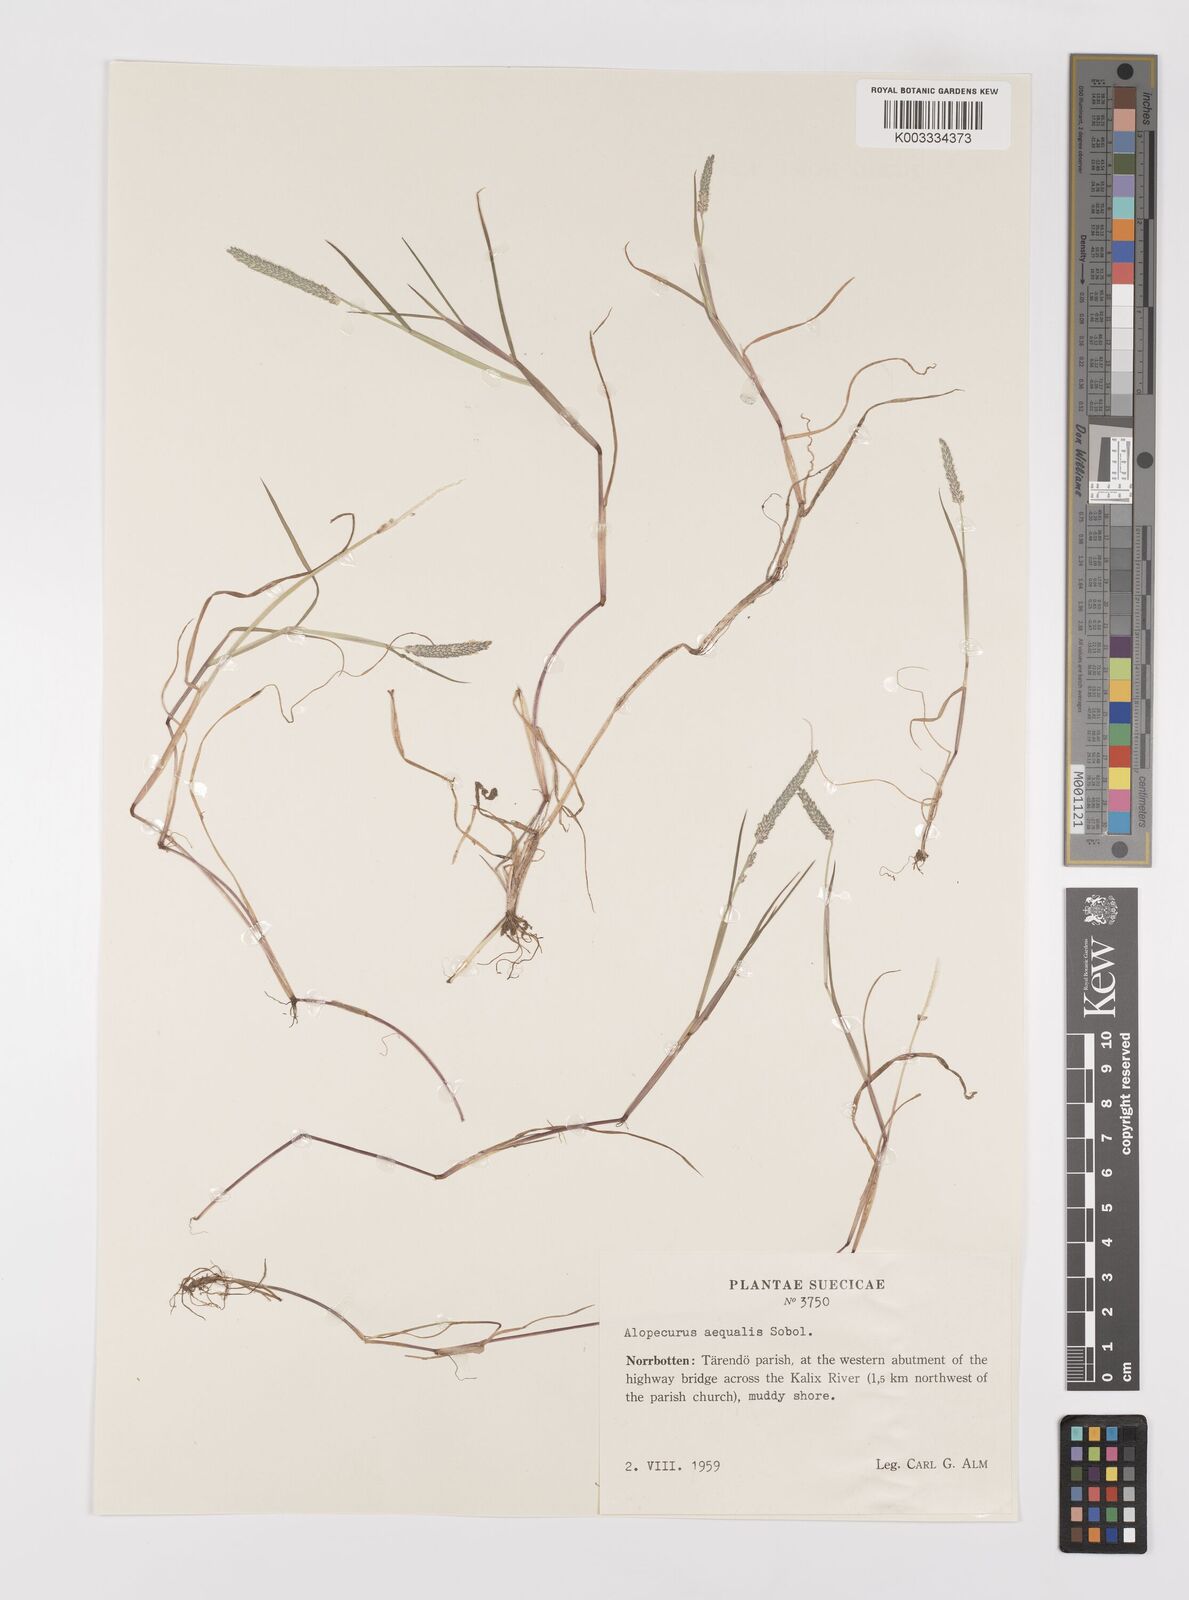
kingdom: Plantae
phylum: Tracheophyta
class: Liliopsida
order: Poales
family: Poaceae
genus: Alopecurus
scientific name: Alopecurus aequalis
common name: Orange foxtail
